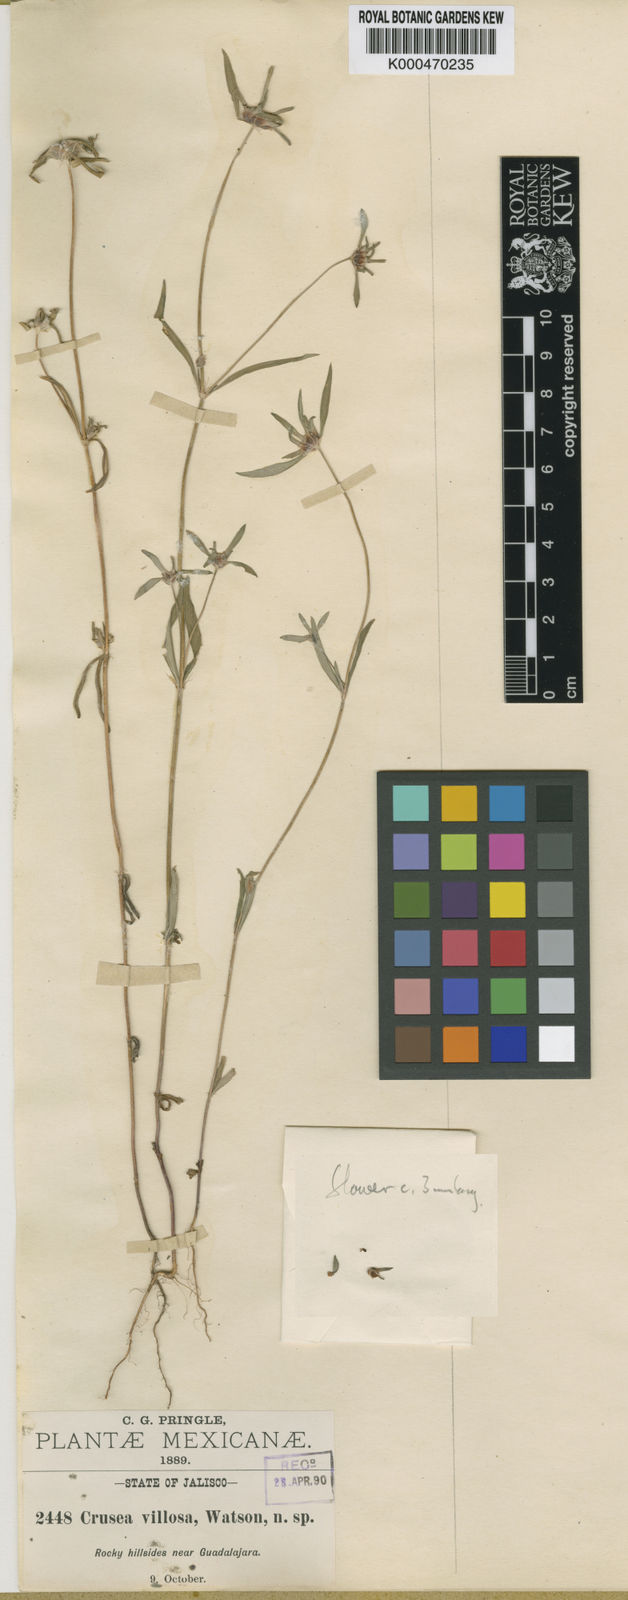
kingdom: Plantae
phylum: Tracheophyta
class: Magnoliopsida
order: Gentianales
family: Rubiaceae
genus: Crusea
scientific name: Crusea psyllioides
